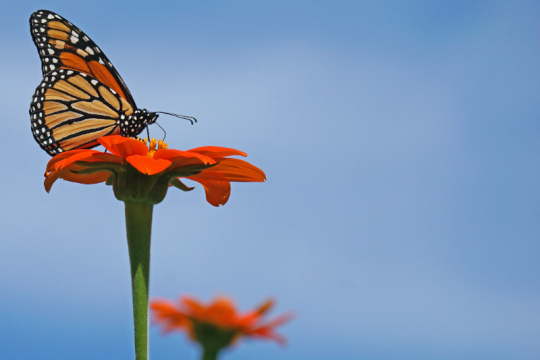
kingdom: Animalia
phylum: Arthropoda
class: Insecta
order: Lepidoptera
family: Nymphalidae
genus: Danaus
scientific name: Danaus plexippus
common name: Monarch
